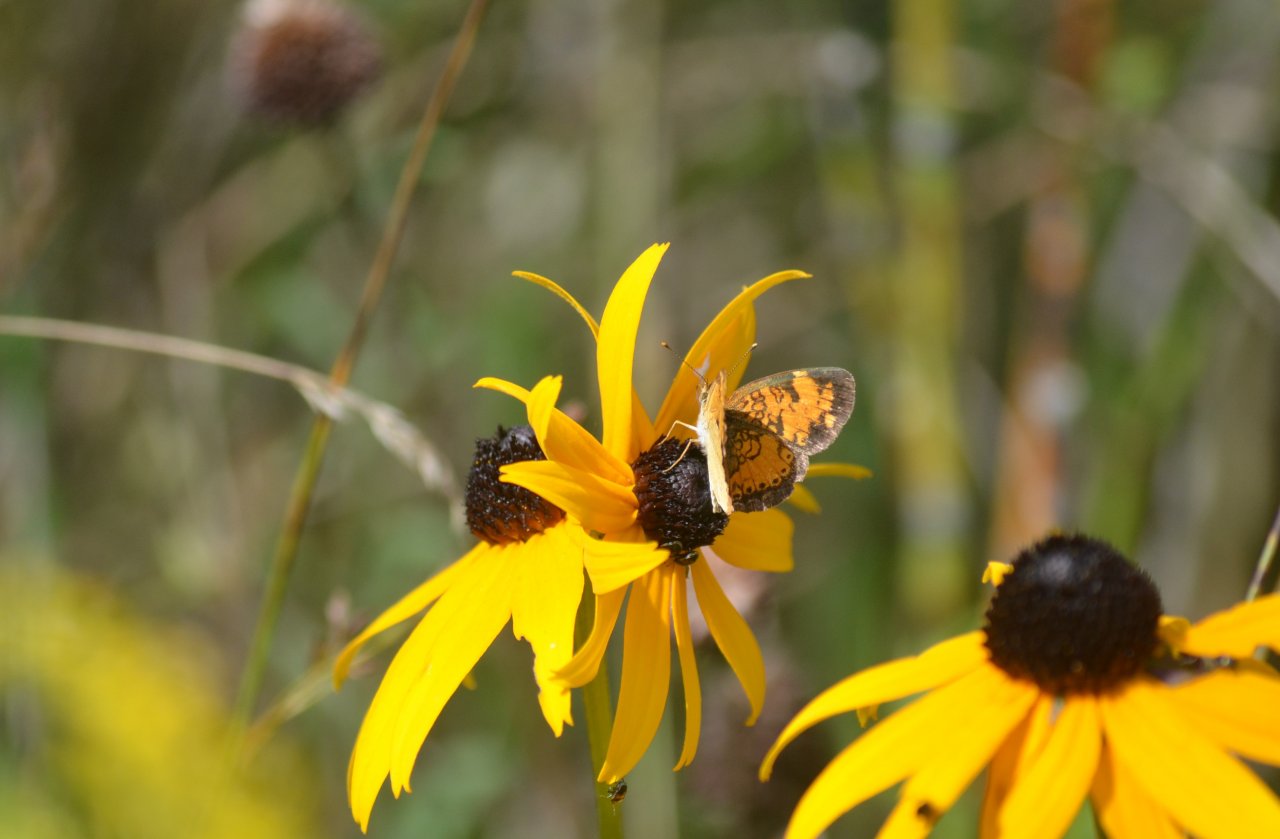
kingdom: Animalia
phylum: Arthropoda
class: Insecta
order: Lepidoptera
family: Nymphalidae
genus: Phyciodes
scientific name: Phyciodes tharos
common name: Northern Crescent
